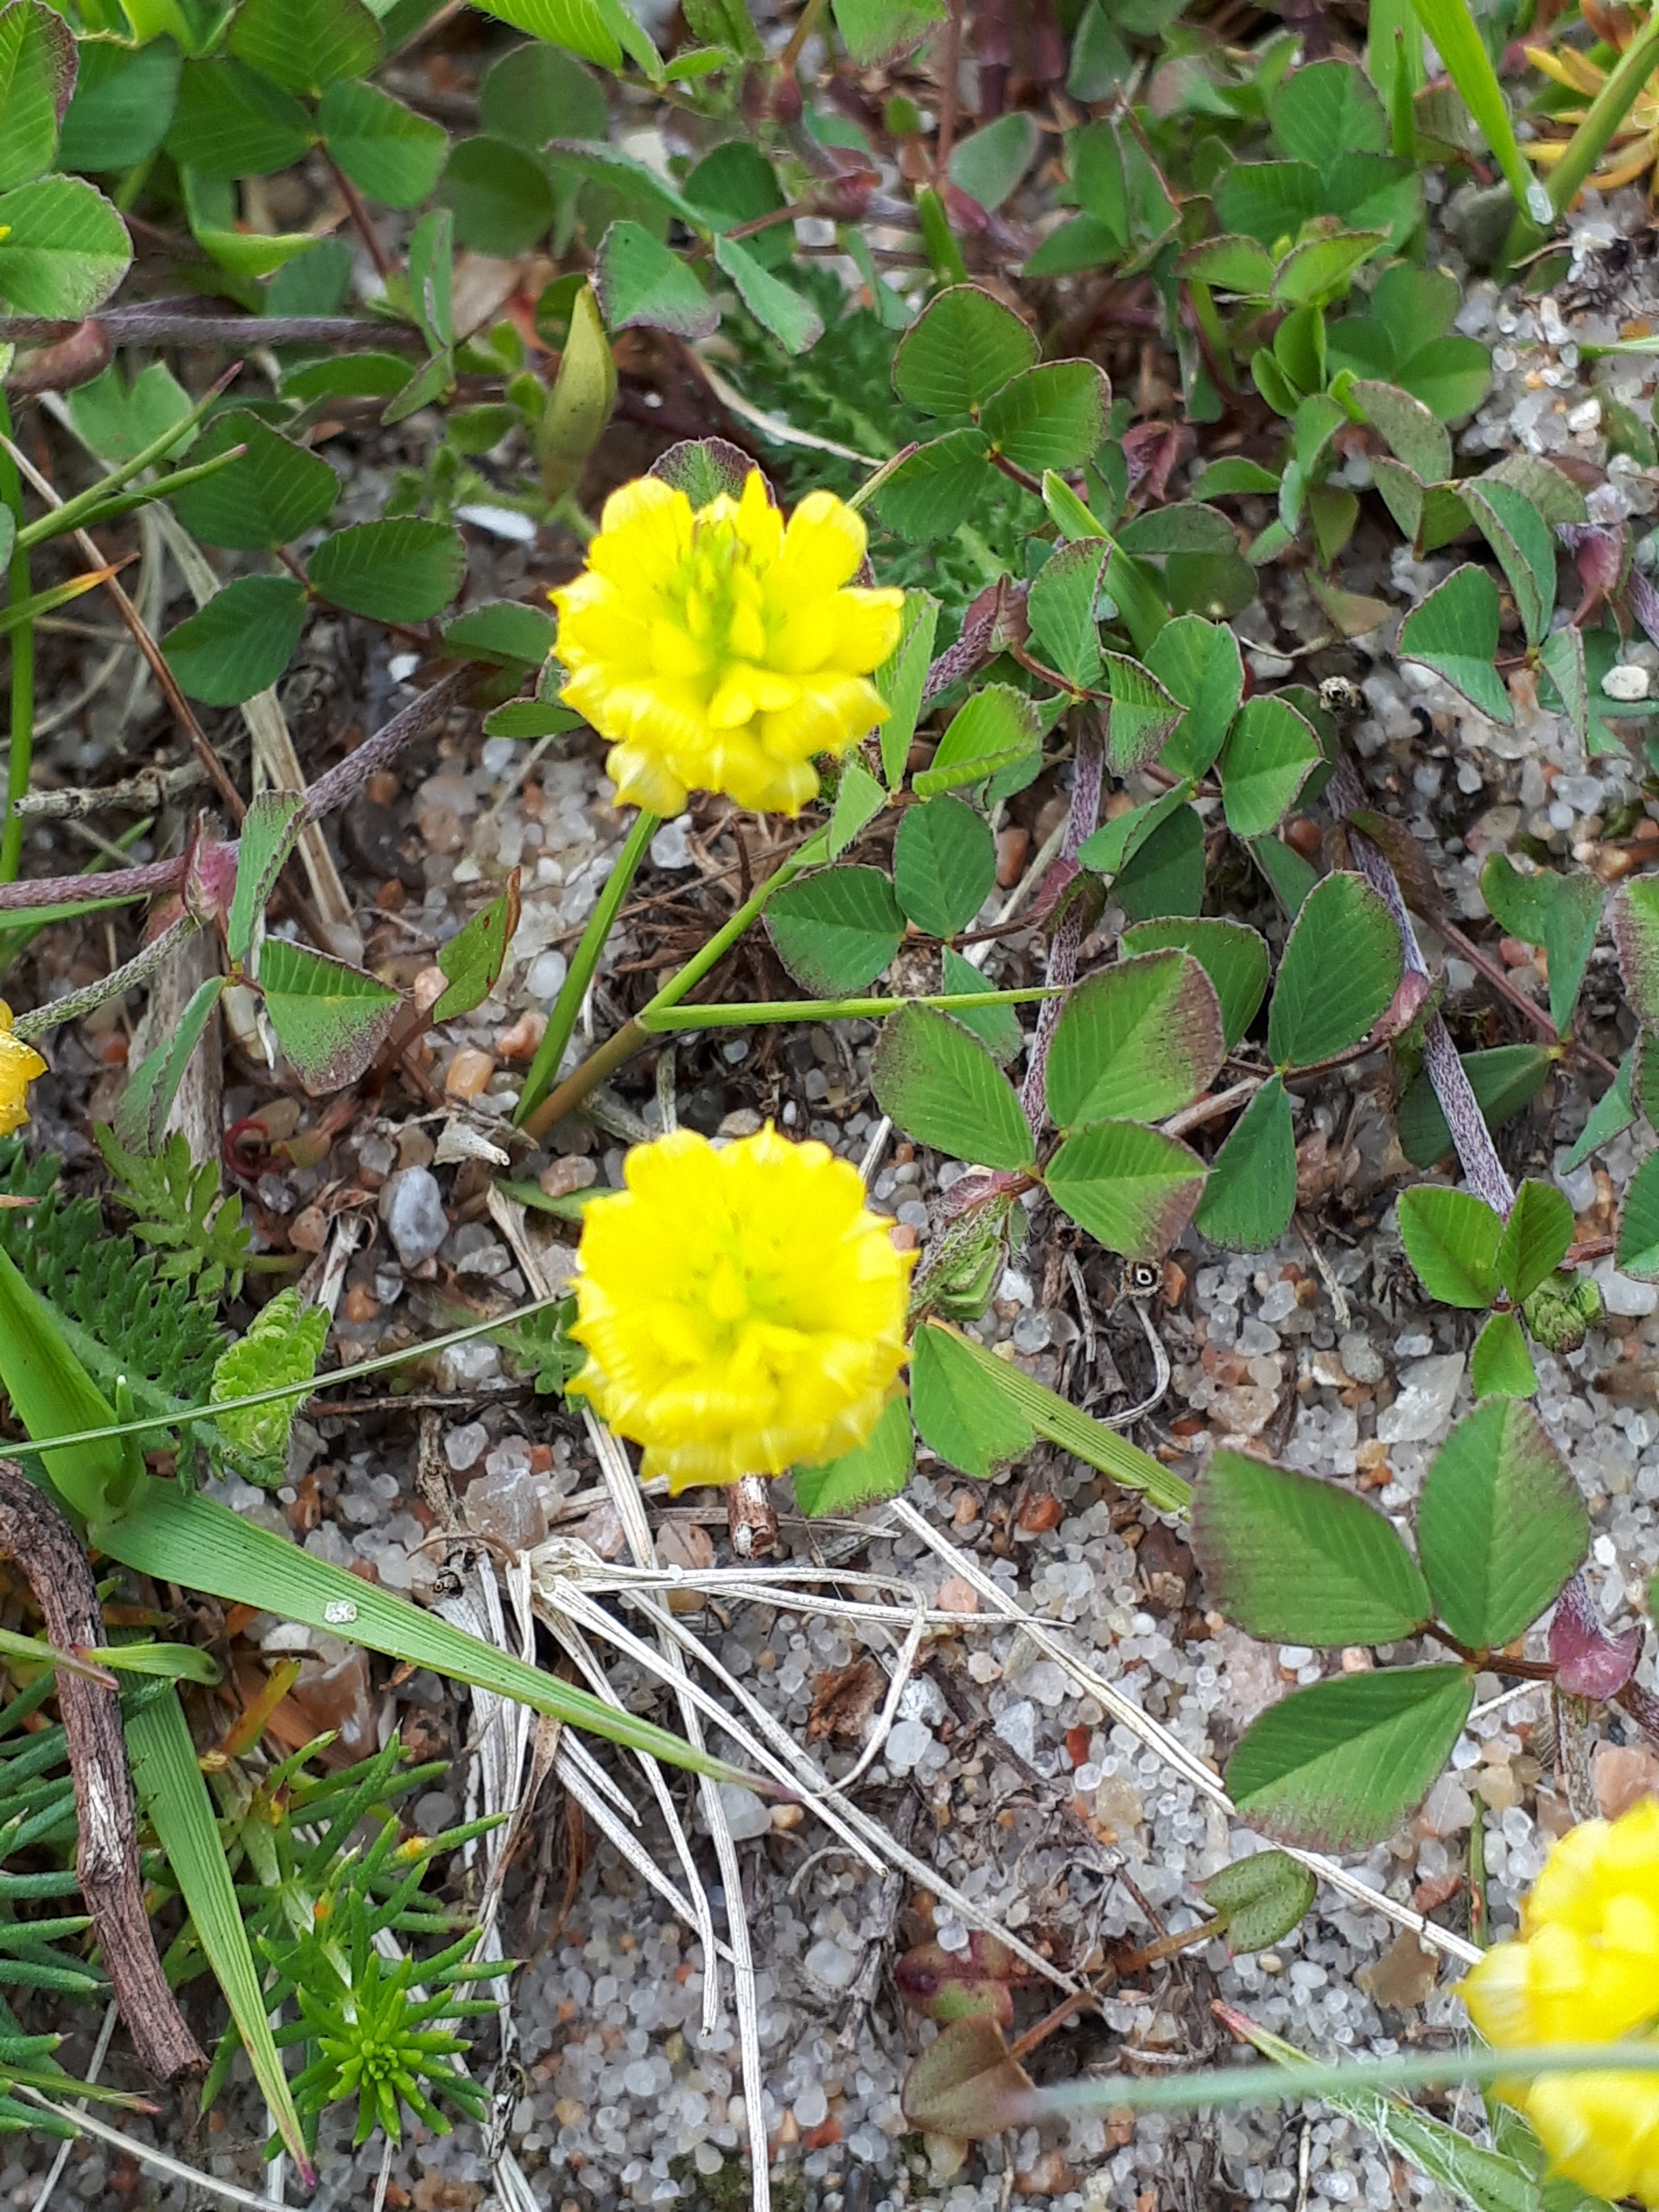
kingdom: Plantae
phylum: Tracheophyta
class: Magnoliopsida
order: Fabales
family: Fabaceae
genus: Trifolium
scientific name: Trifolium campestre
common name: Gul kløver
